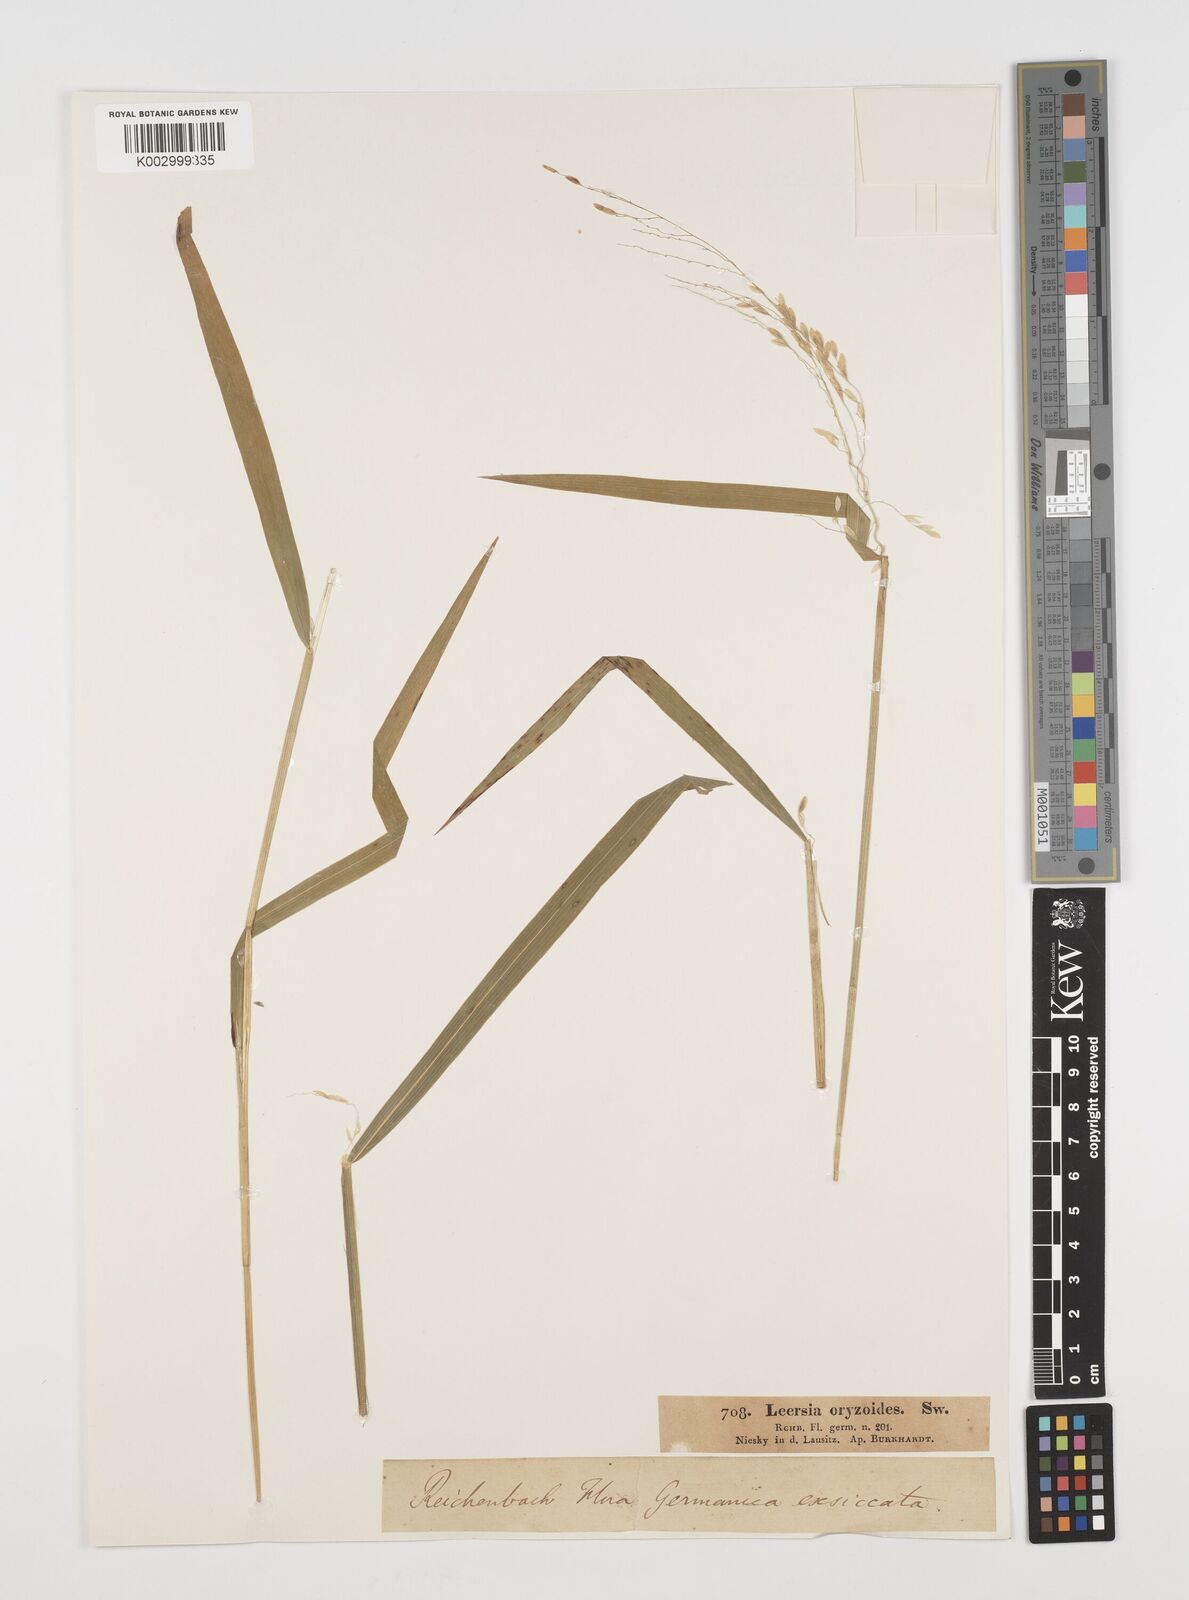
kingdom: Plantae
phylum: Tracheophyta
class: Liliopsida
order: Poales
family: Poaceae
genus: Leersia
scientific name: Leersia oryzoides
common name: Cut-grass
